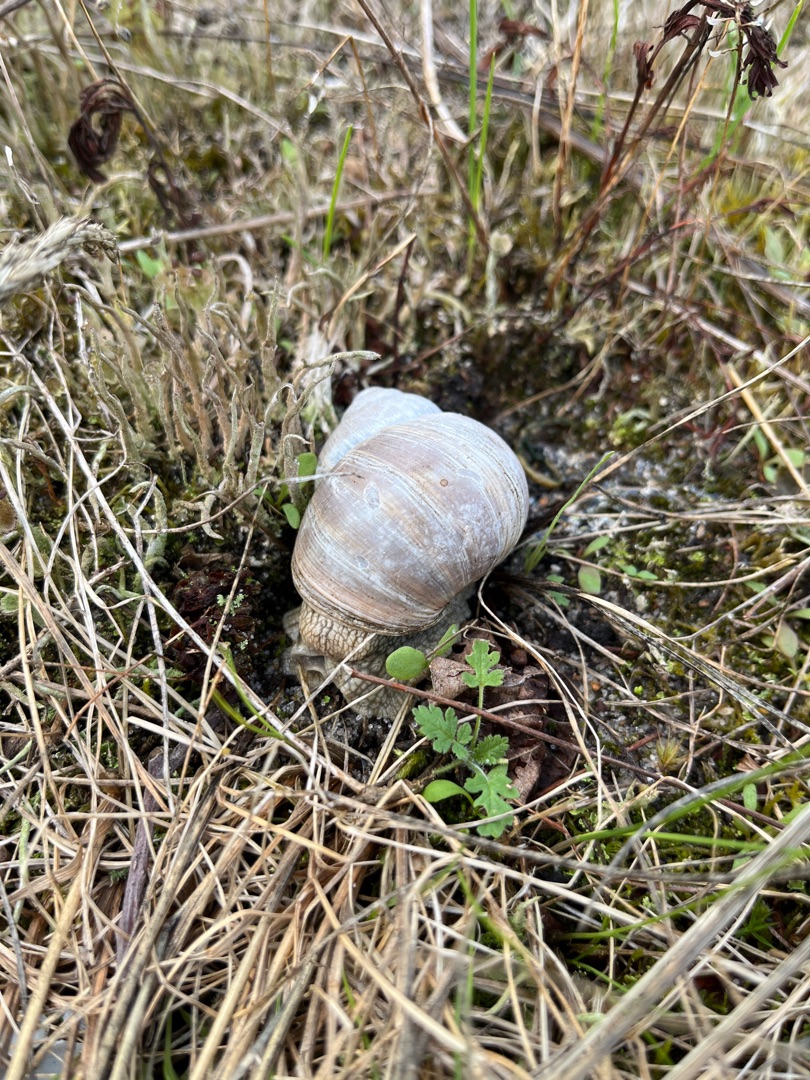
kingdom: Animalia
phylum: Mollusca
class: Gastropoda
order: Stylommatophora
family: Helicidae
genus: Helix
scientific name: Helix pomatia
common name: Vinbjergsnegl
